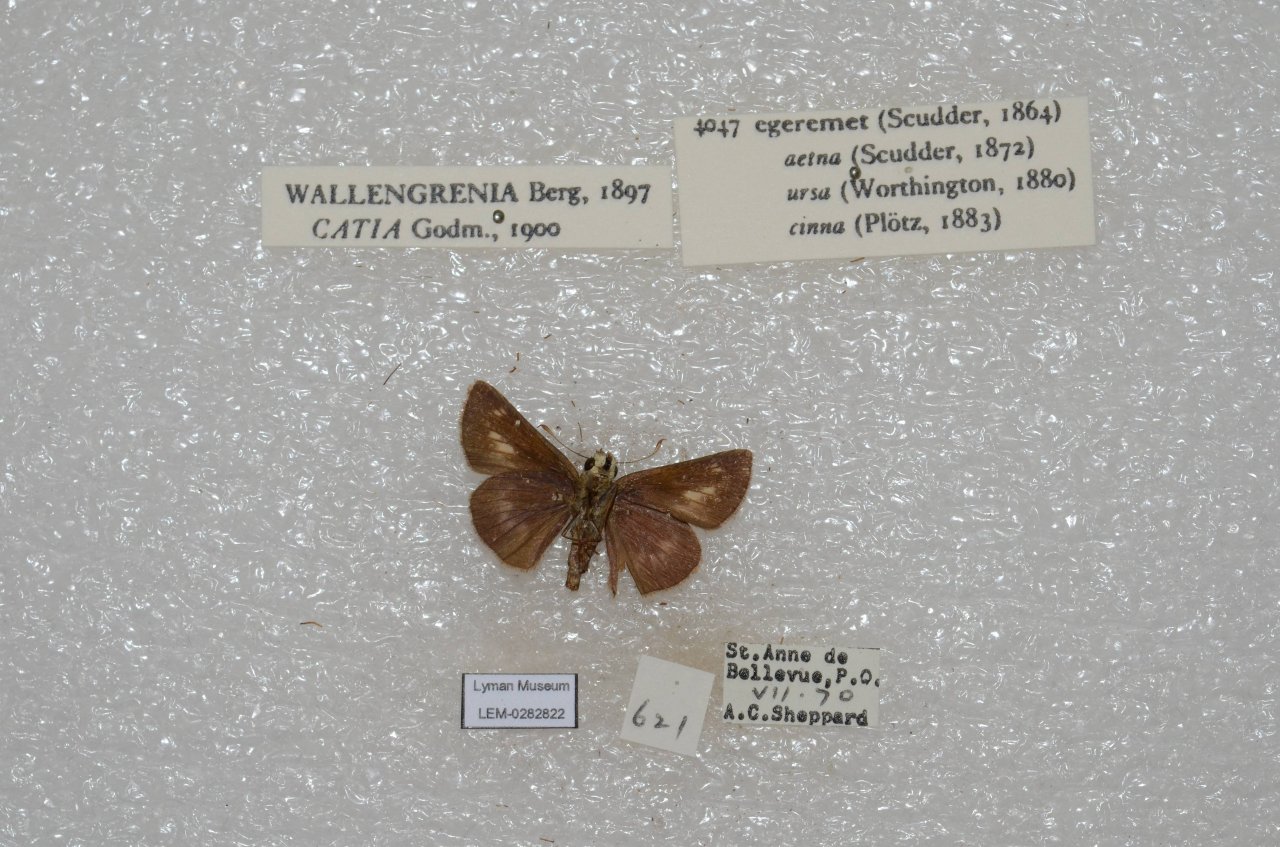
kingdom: Animalia
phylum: Arthropoda
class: Insecta
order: Lepidoptera
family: Hesperiidae
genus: Polites
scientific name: Polites egeremet
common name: Northern Broken-Dash
